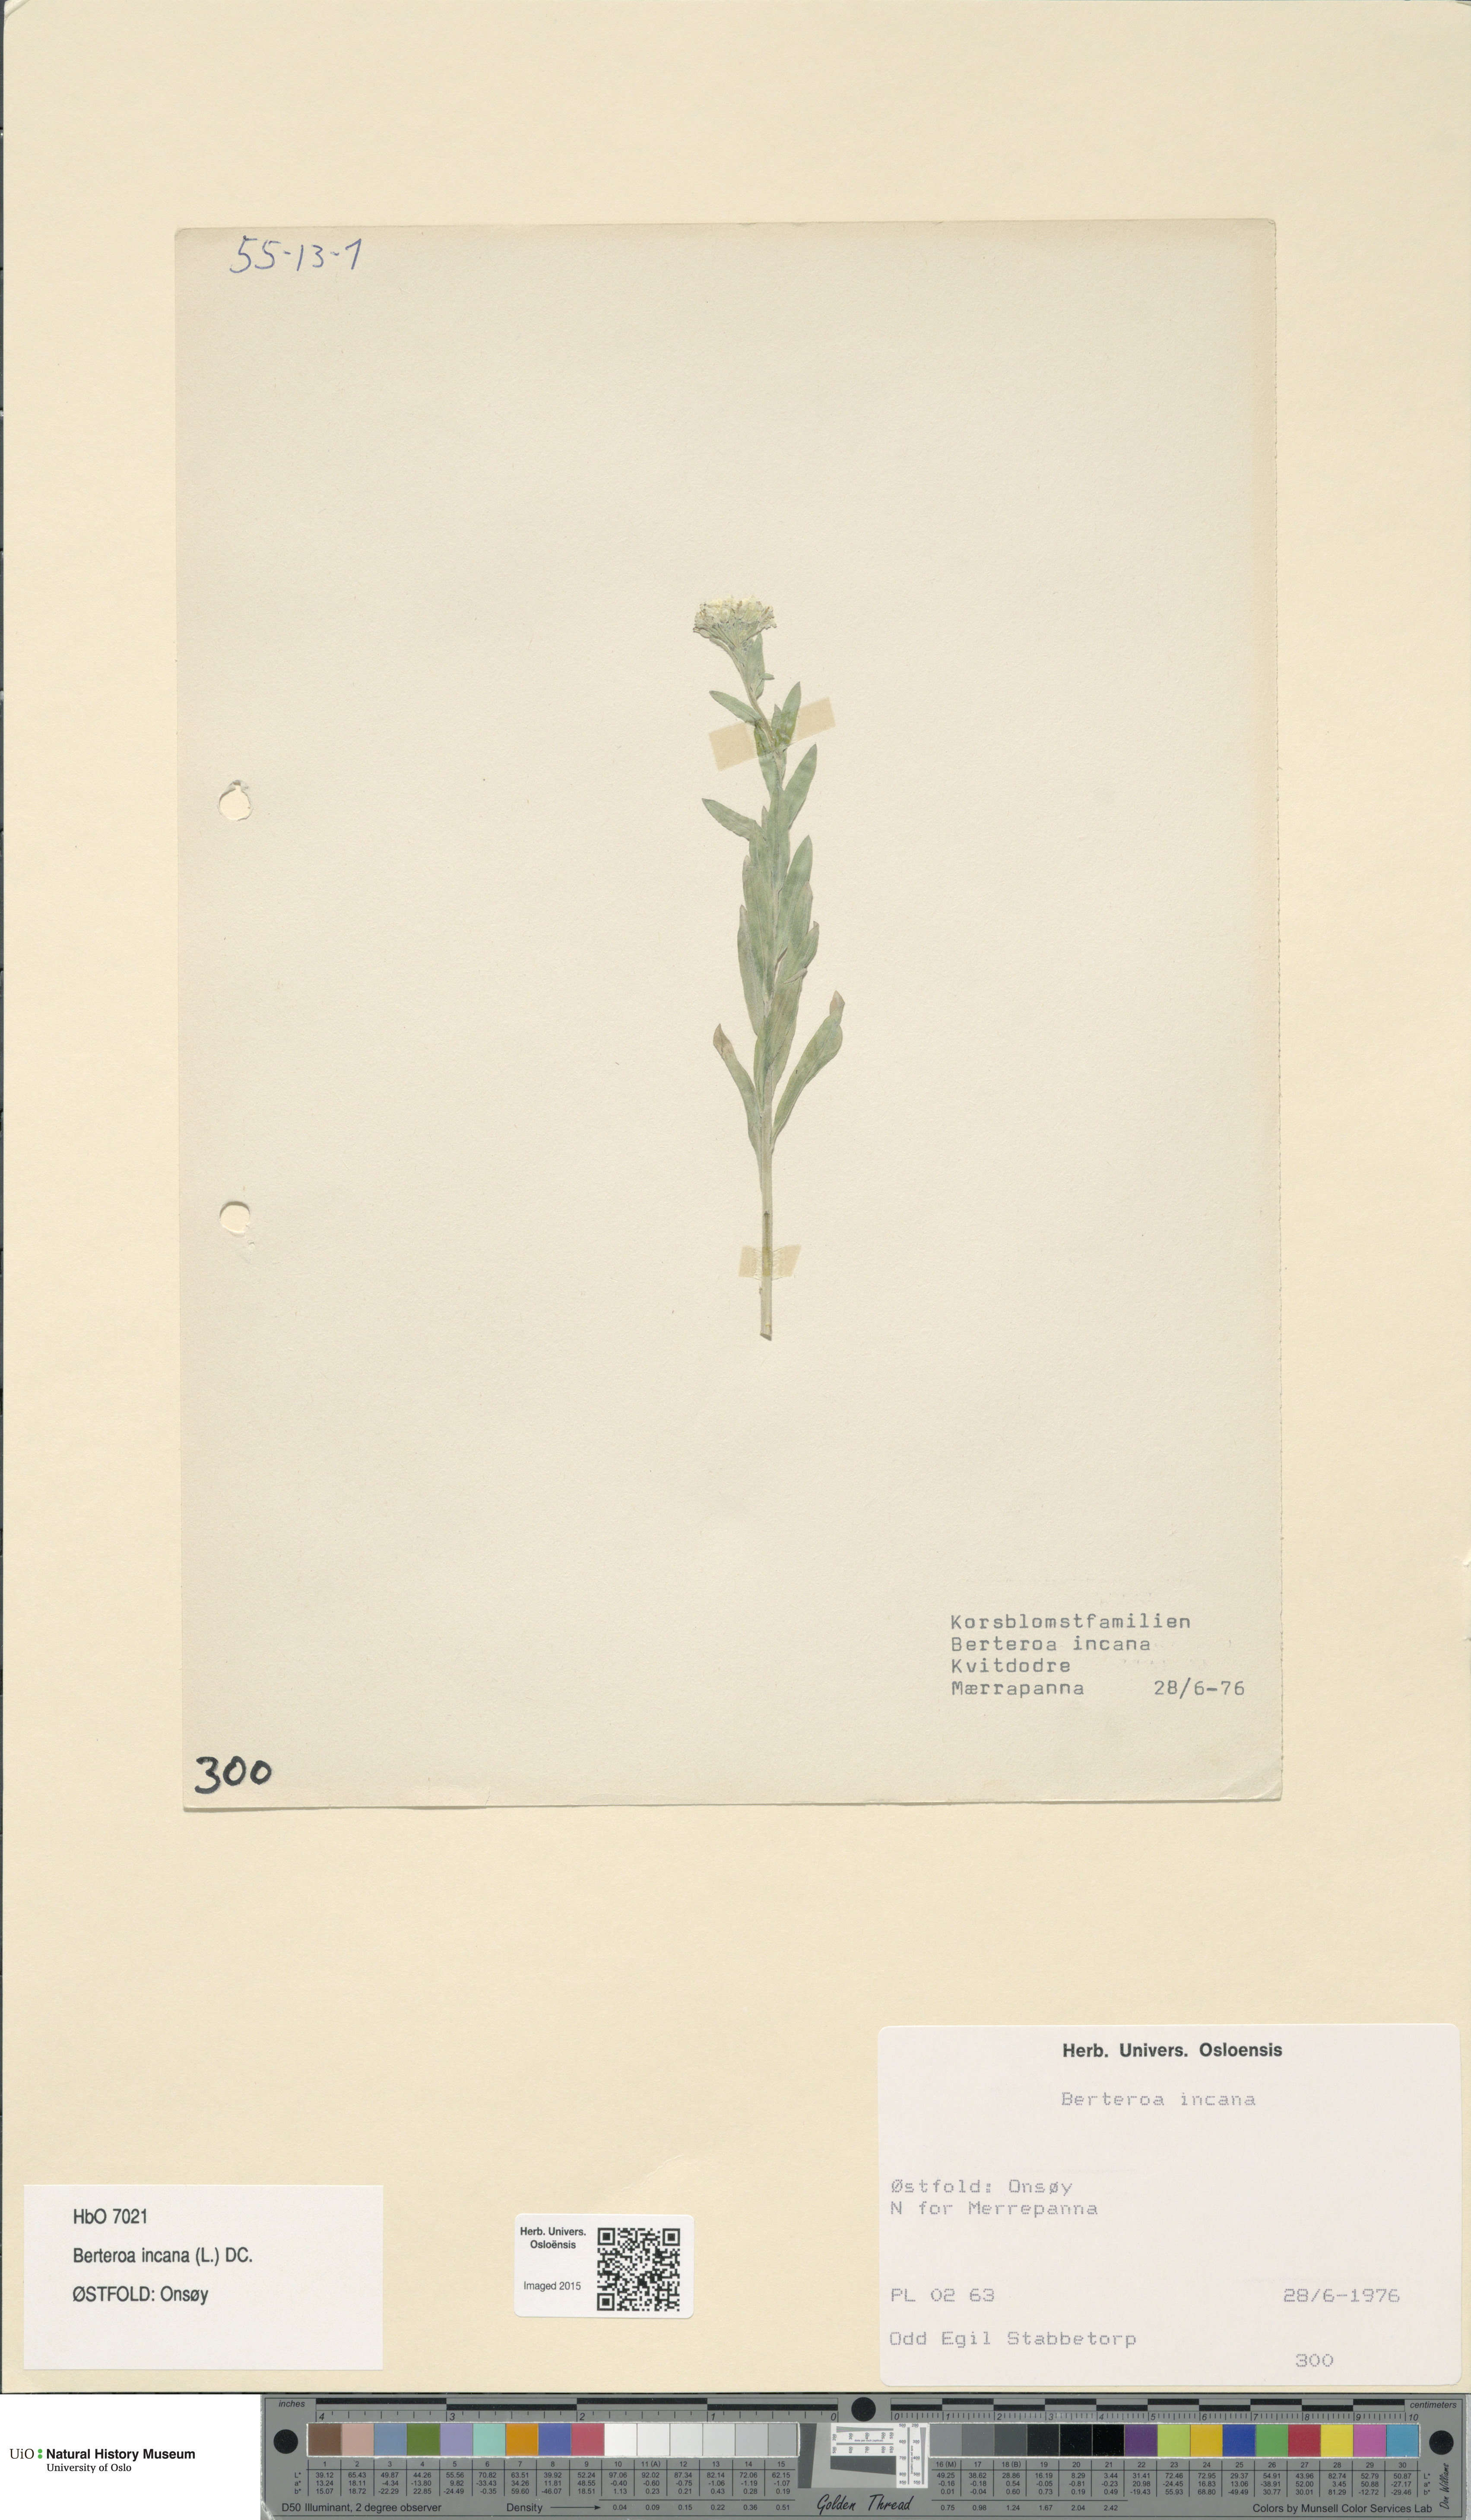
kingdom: Plantae
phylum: Tracheophyta
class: Magnoliopsida
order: Brassicales
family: Brassicaceae
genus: Berteroa
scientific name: Berteroa incana
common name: Hoary alison
